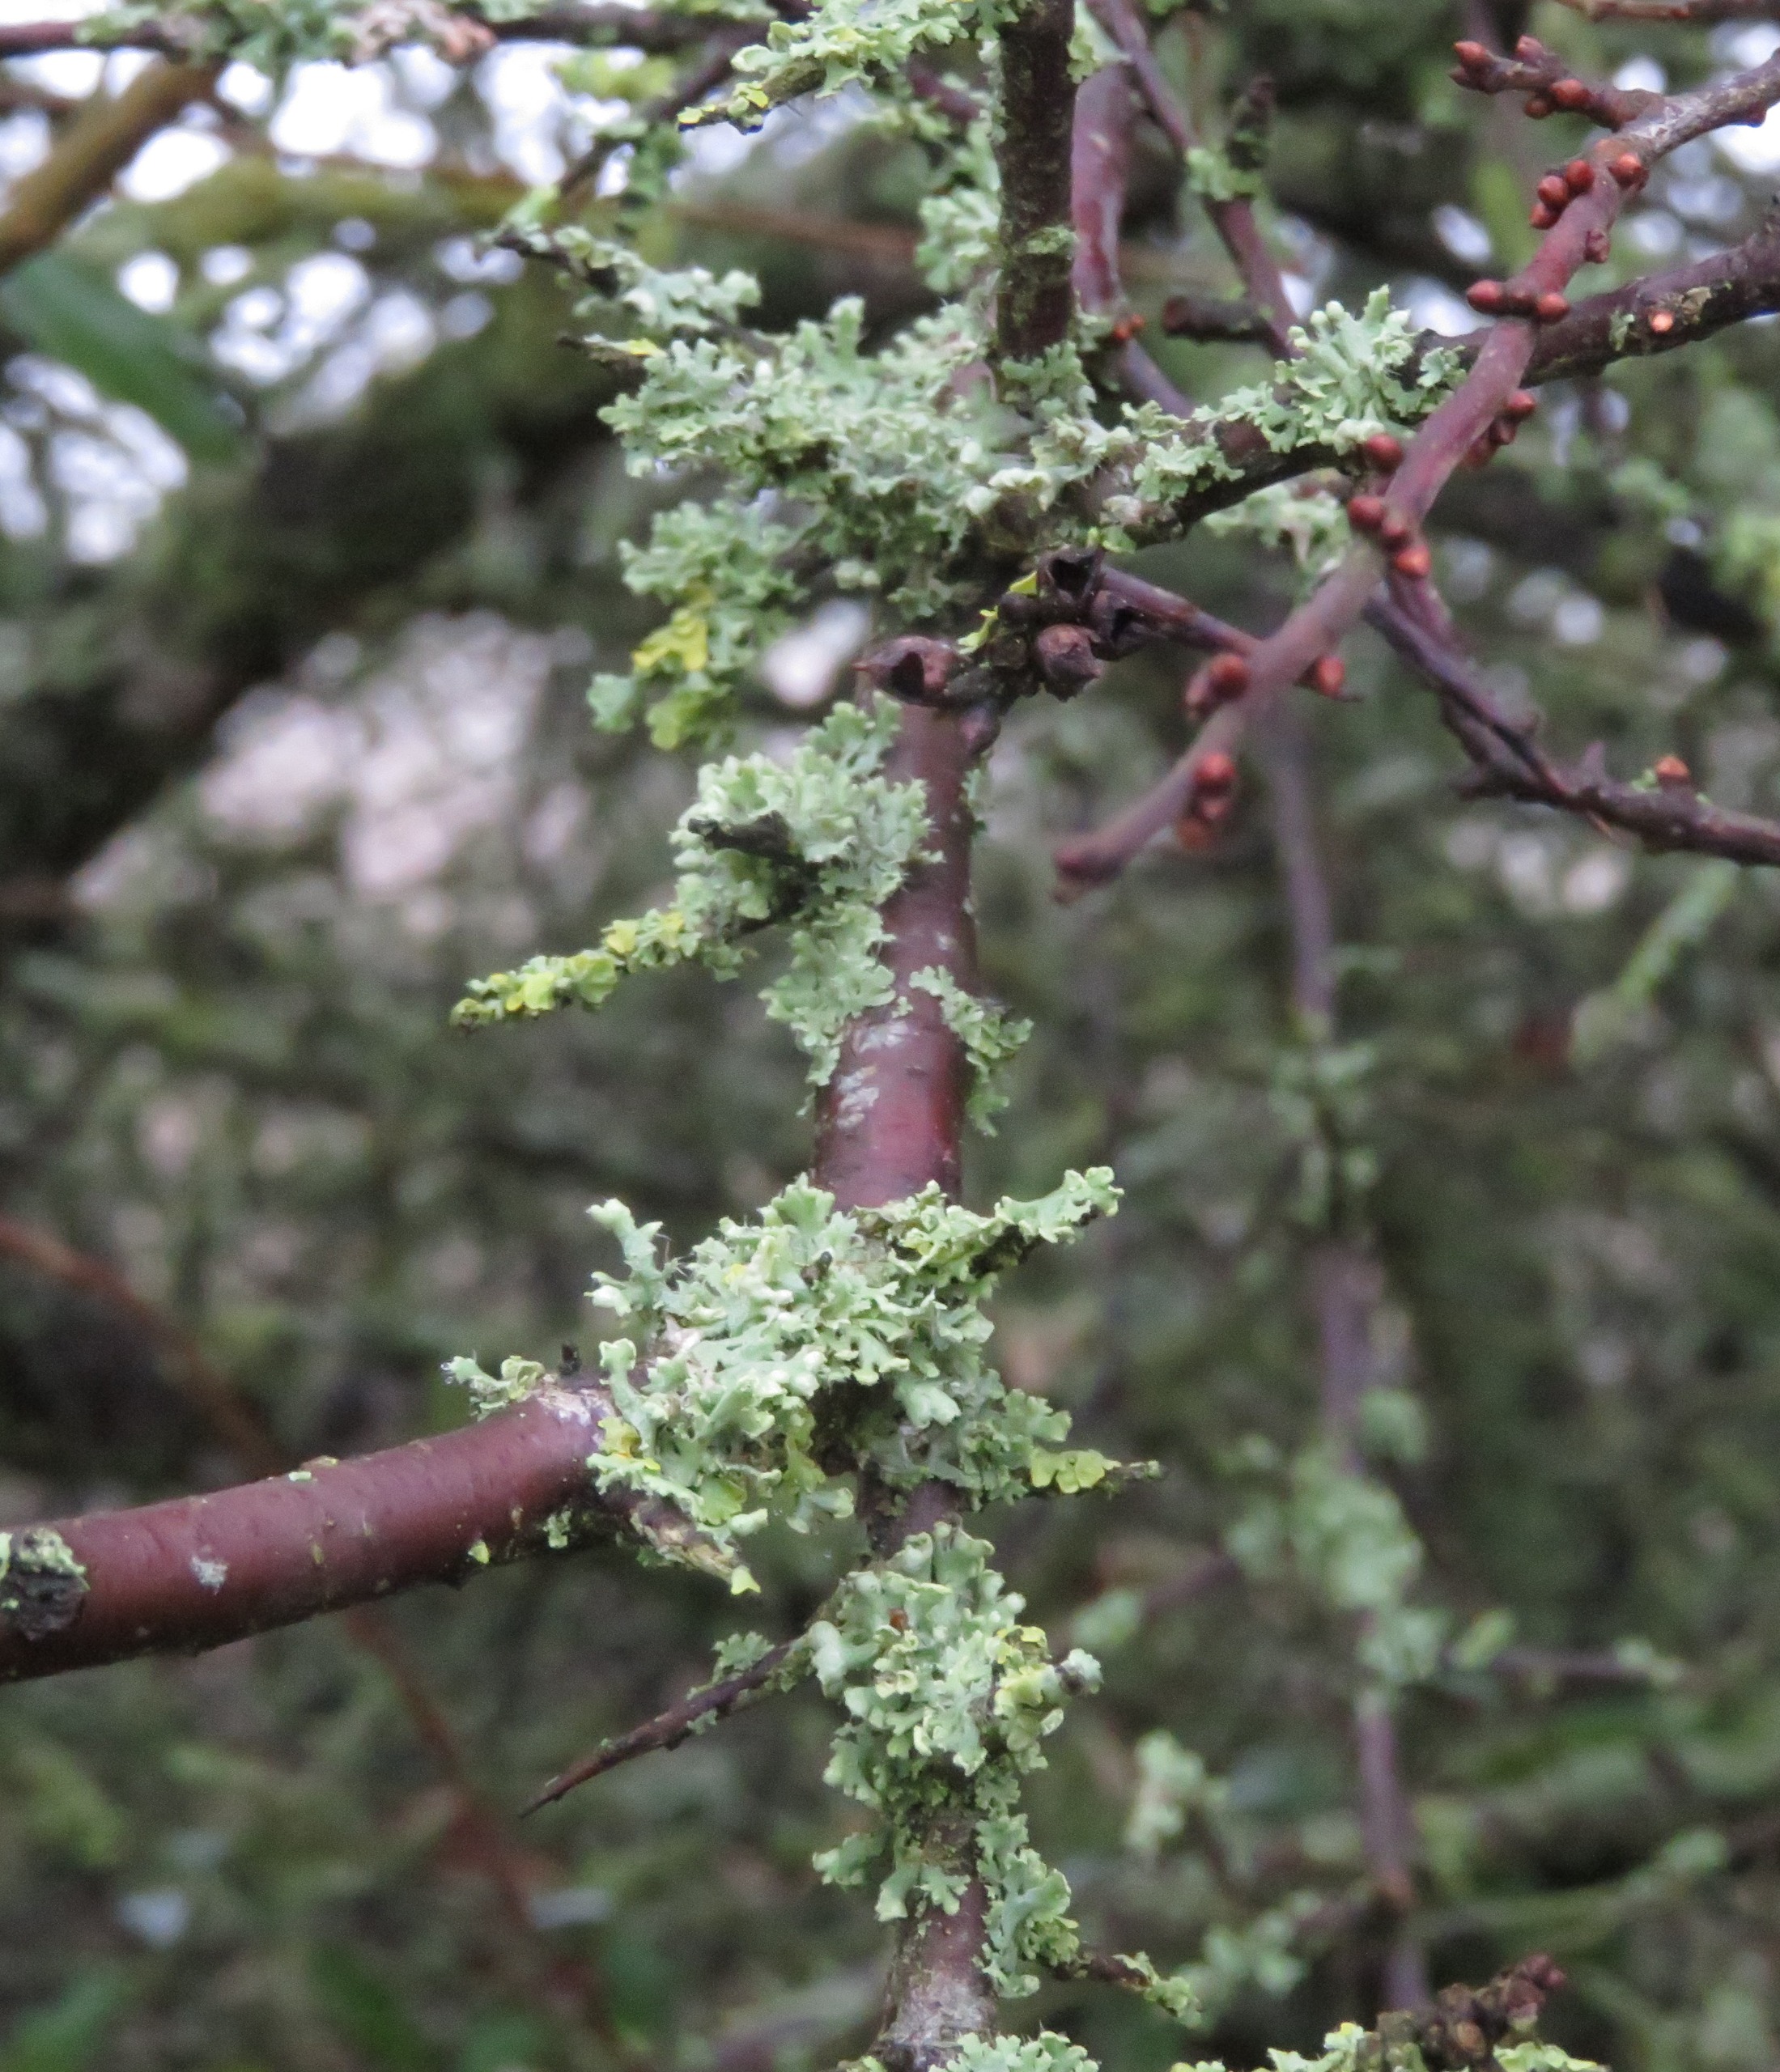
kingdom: Fungi
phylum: Ascomycota
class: Lecanoromycetes
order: Caliciales
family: Physciaceae
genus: Physcia
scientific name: Physcia adscendens
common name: Hætte-rosetlav
